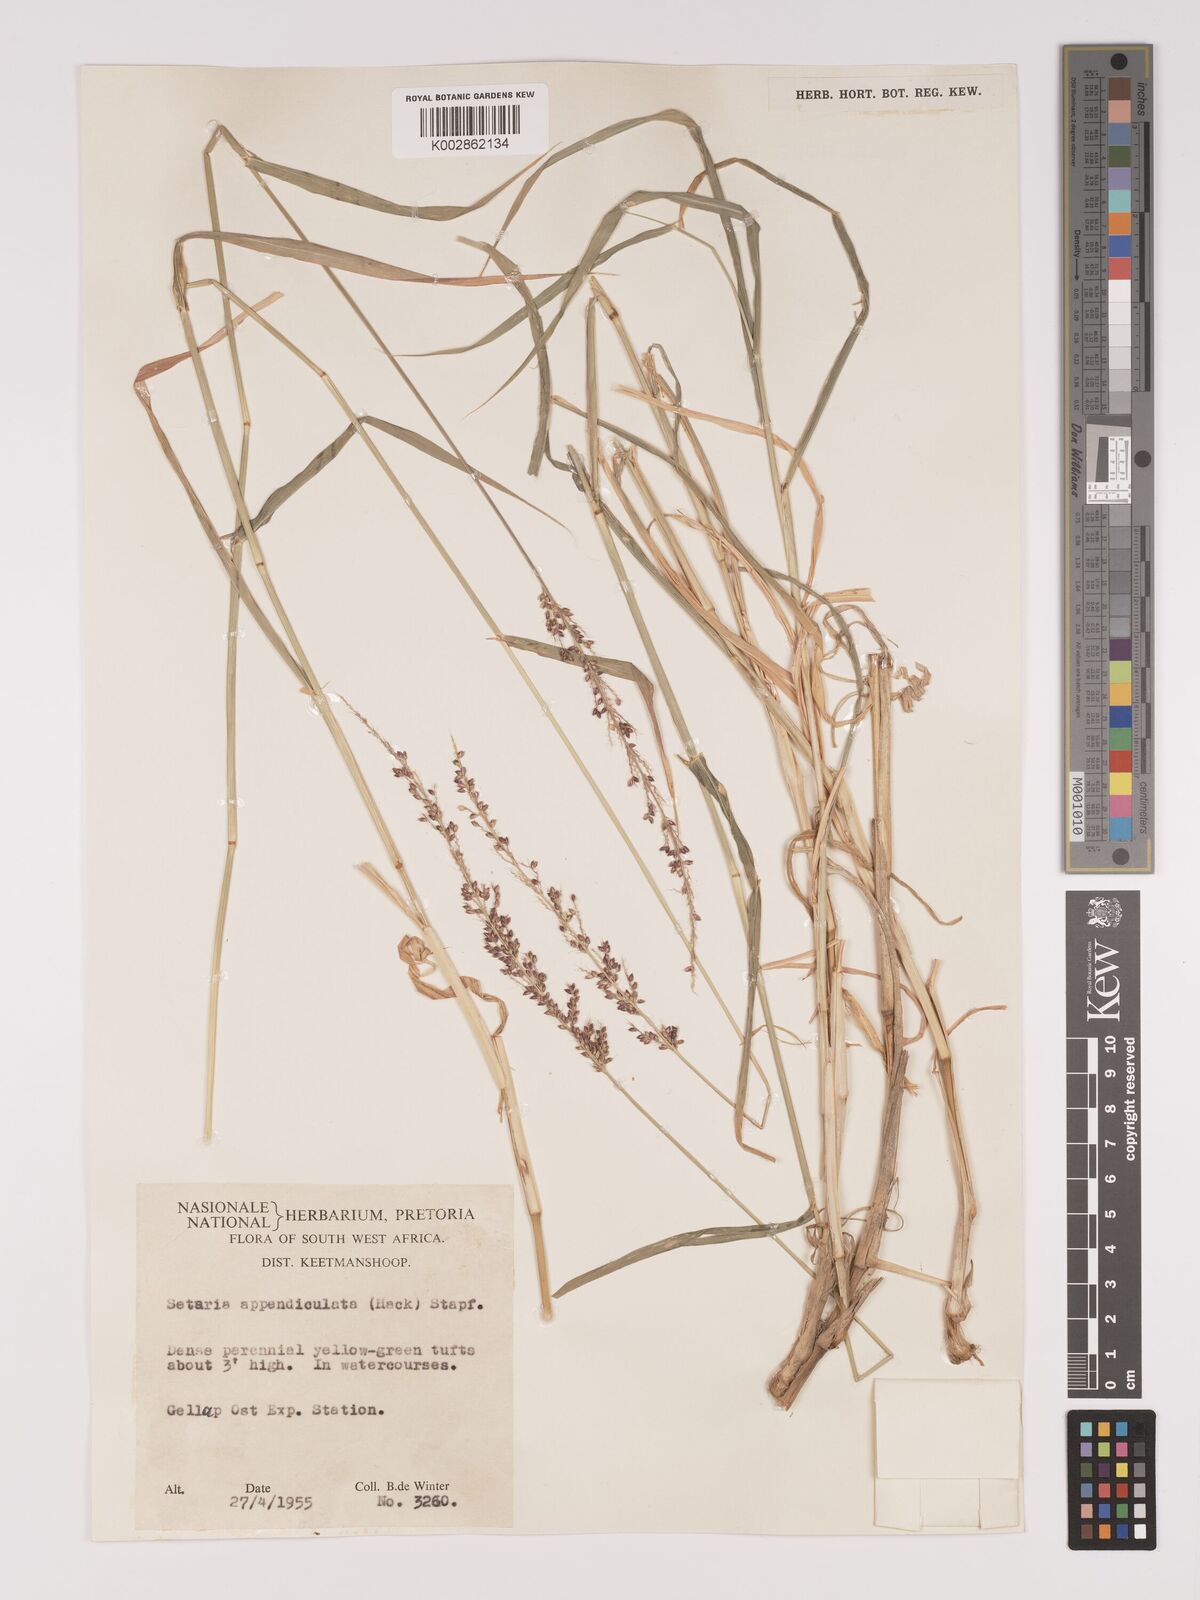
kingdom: Plantae
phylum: Tracheophyta
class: Liliopsida
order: Poales
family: Poaceae
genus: Setaria
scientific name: Setaria appendiculata
